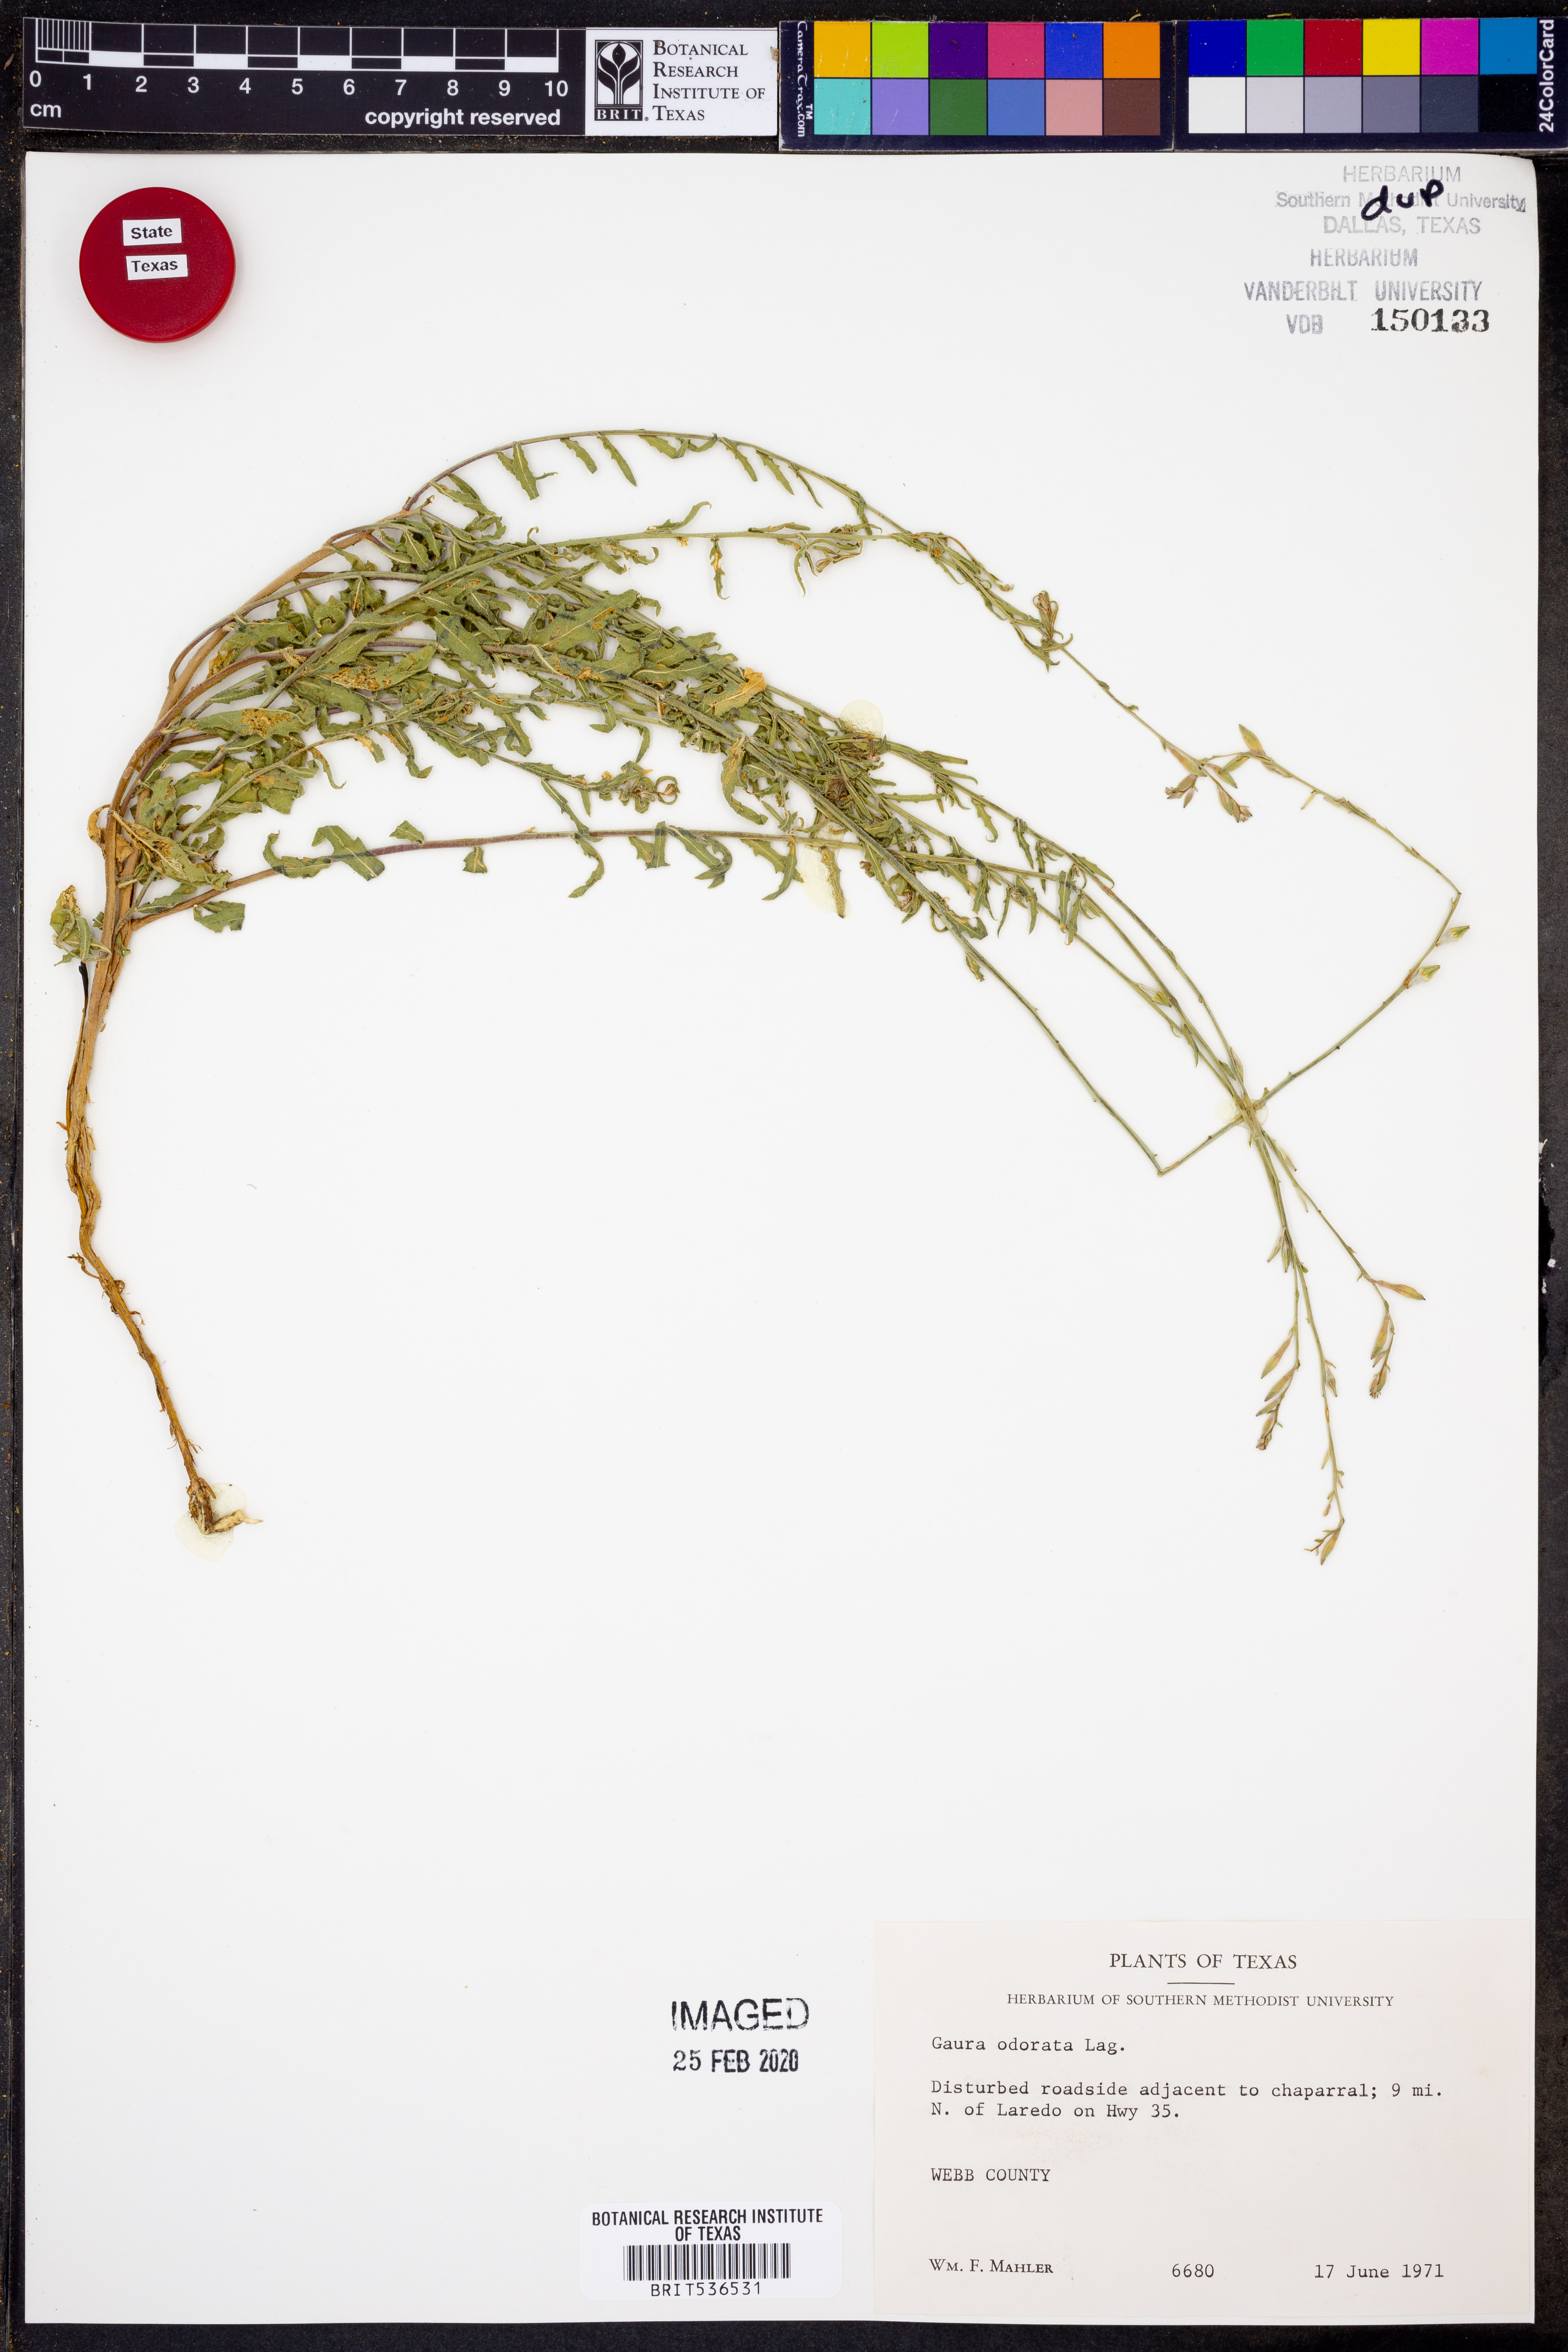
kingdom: Plantae
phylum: Tracheophyta
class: Magnoliopsida
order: Myrtales
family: Onagraceae
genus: Oenothera
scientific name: Oenothera
